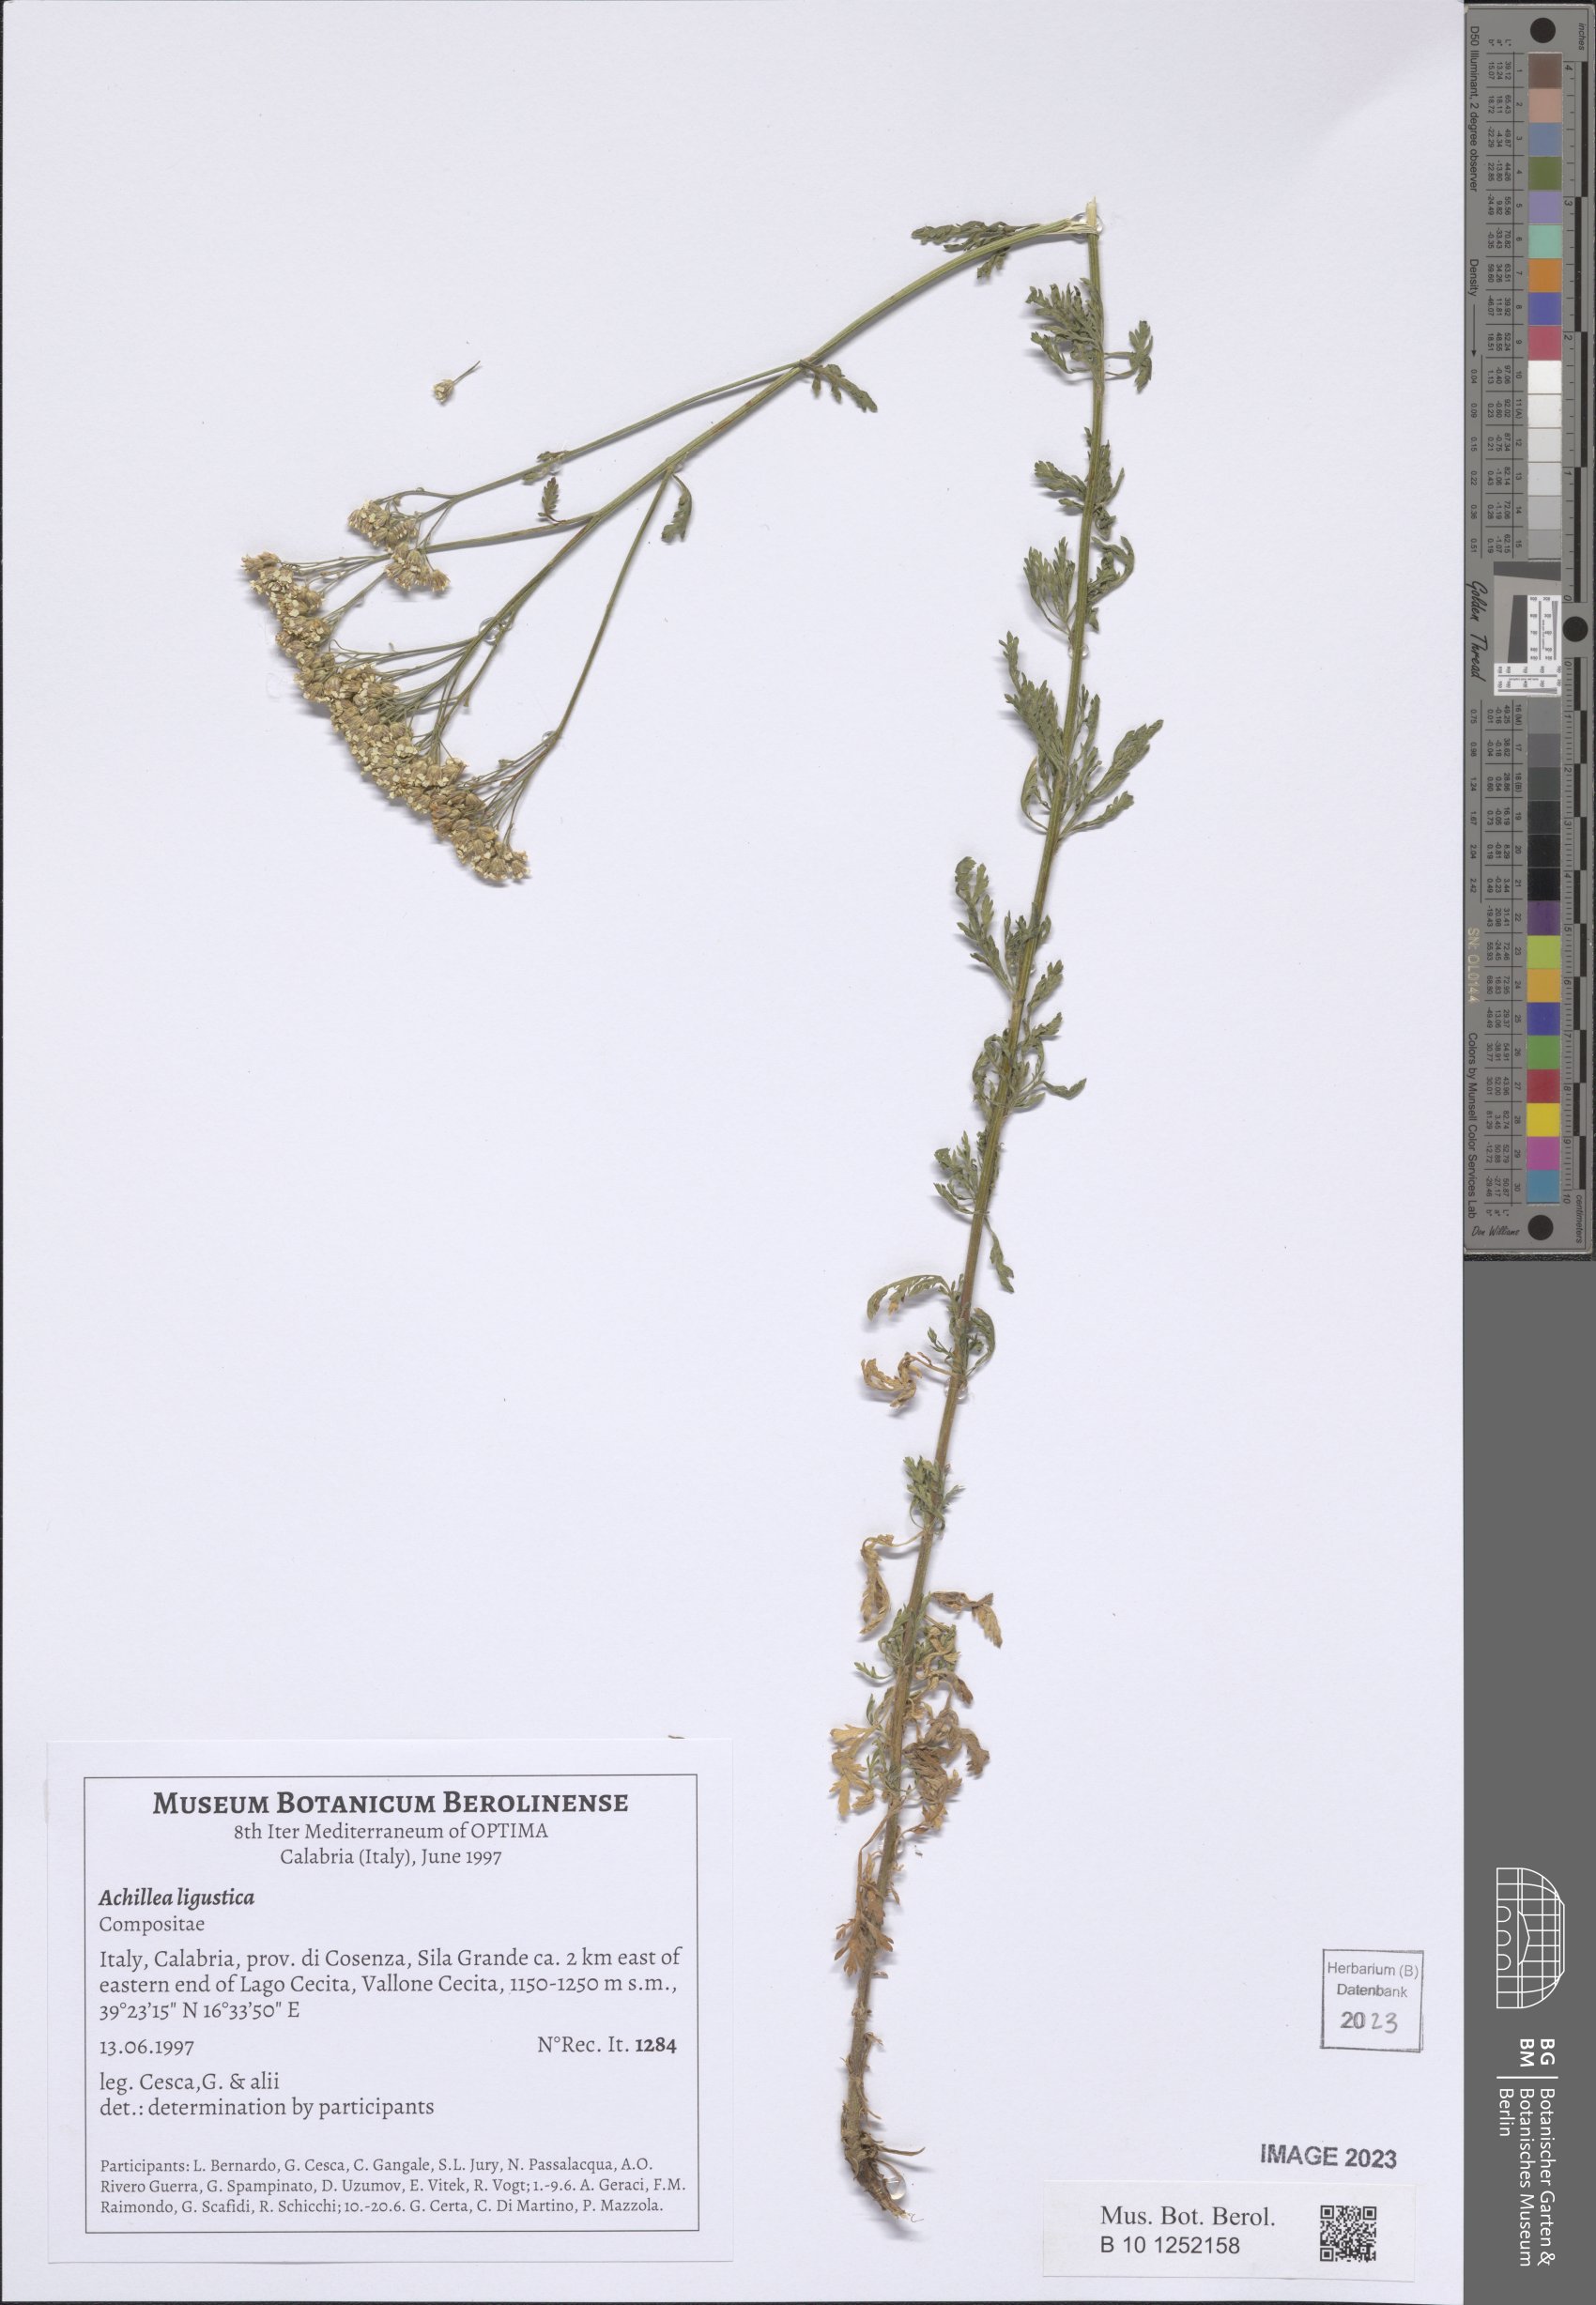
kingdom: Plantae
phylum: Tracheophyta
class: Magnoliopsida
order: Asterales
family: Asteraceae
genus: Achillea
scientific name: Achillea ligustica
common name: Southern yarrow
